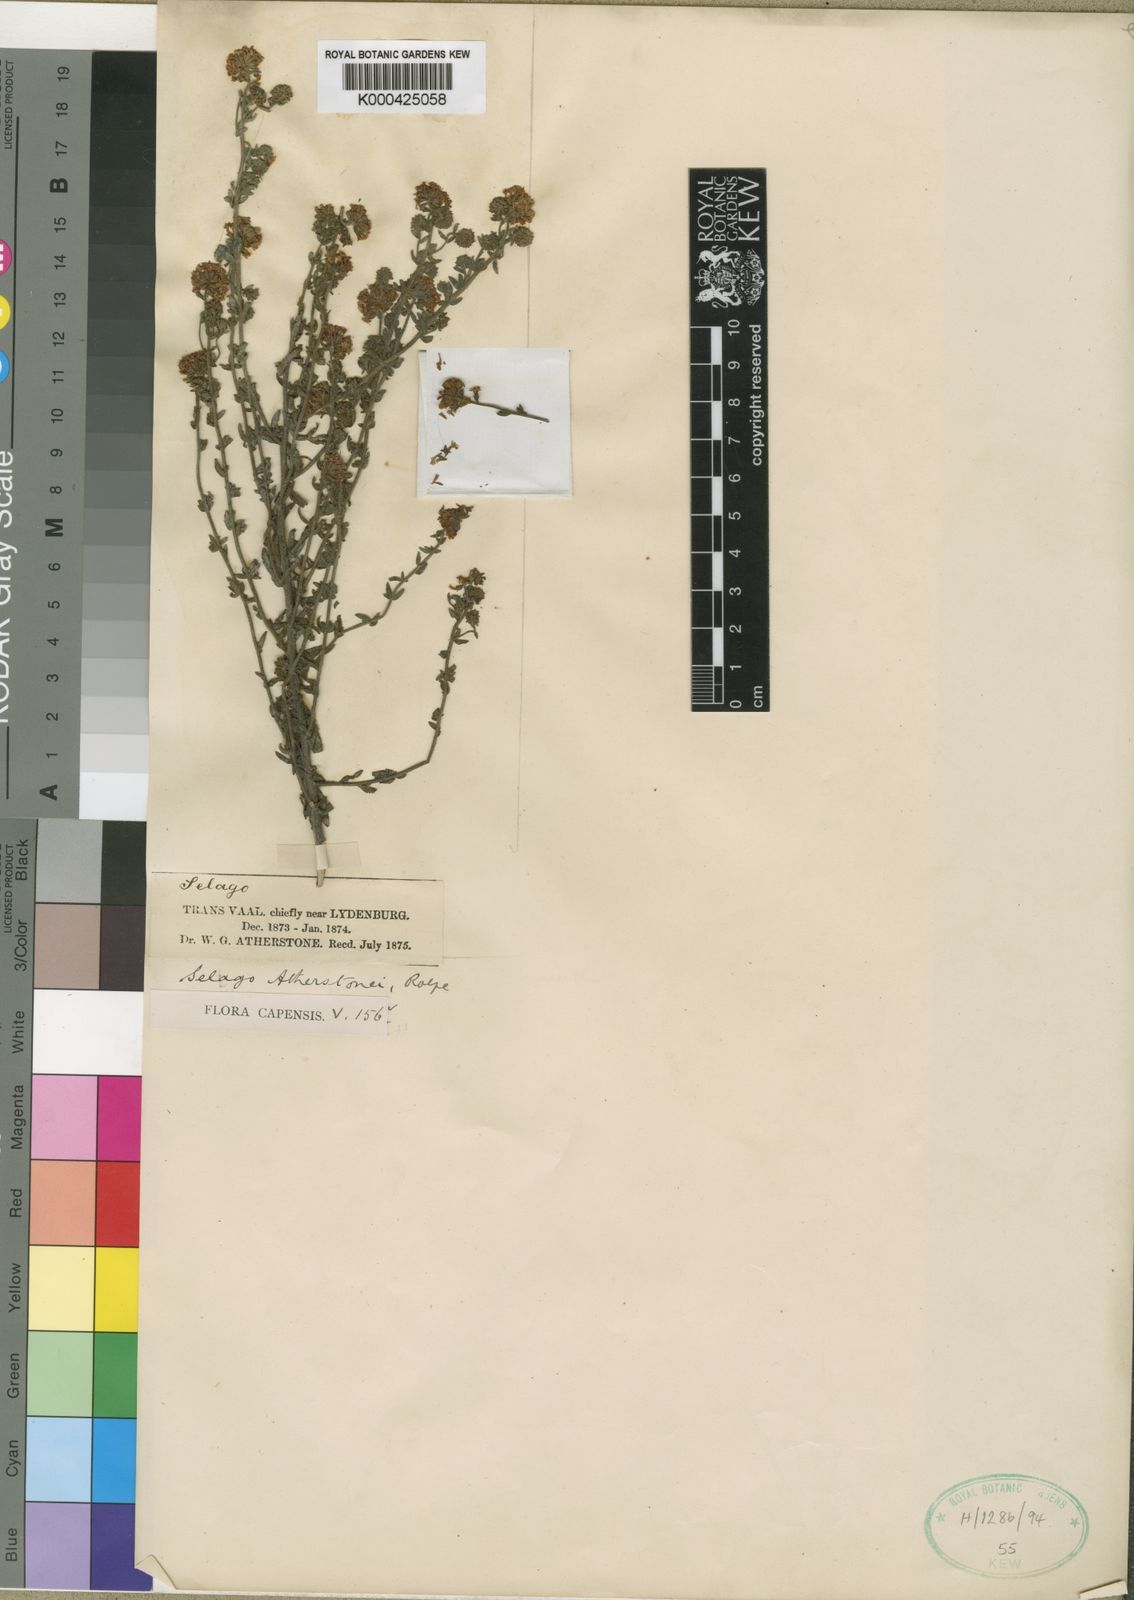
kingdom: Plantae
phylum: Tracheophyta
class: Magnoliopsida
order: Lamiales
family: Scrophulariaceae
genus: Selago
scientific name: Selago atherstonei
